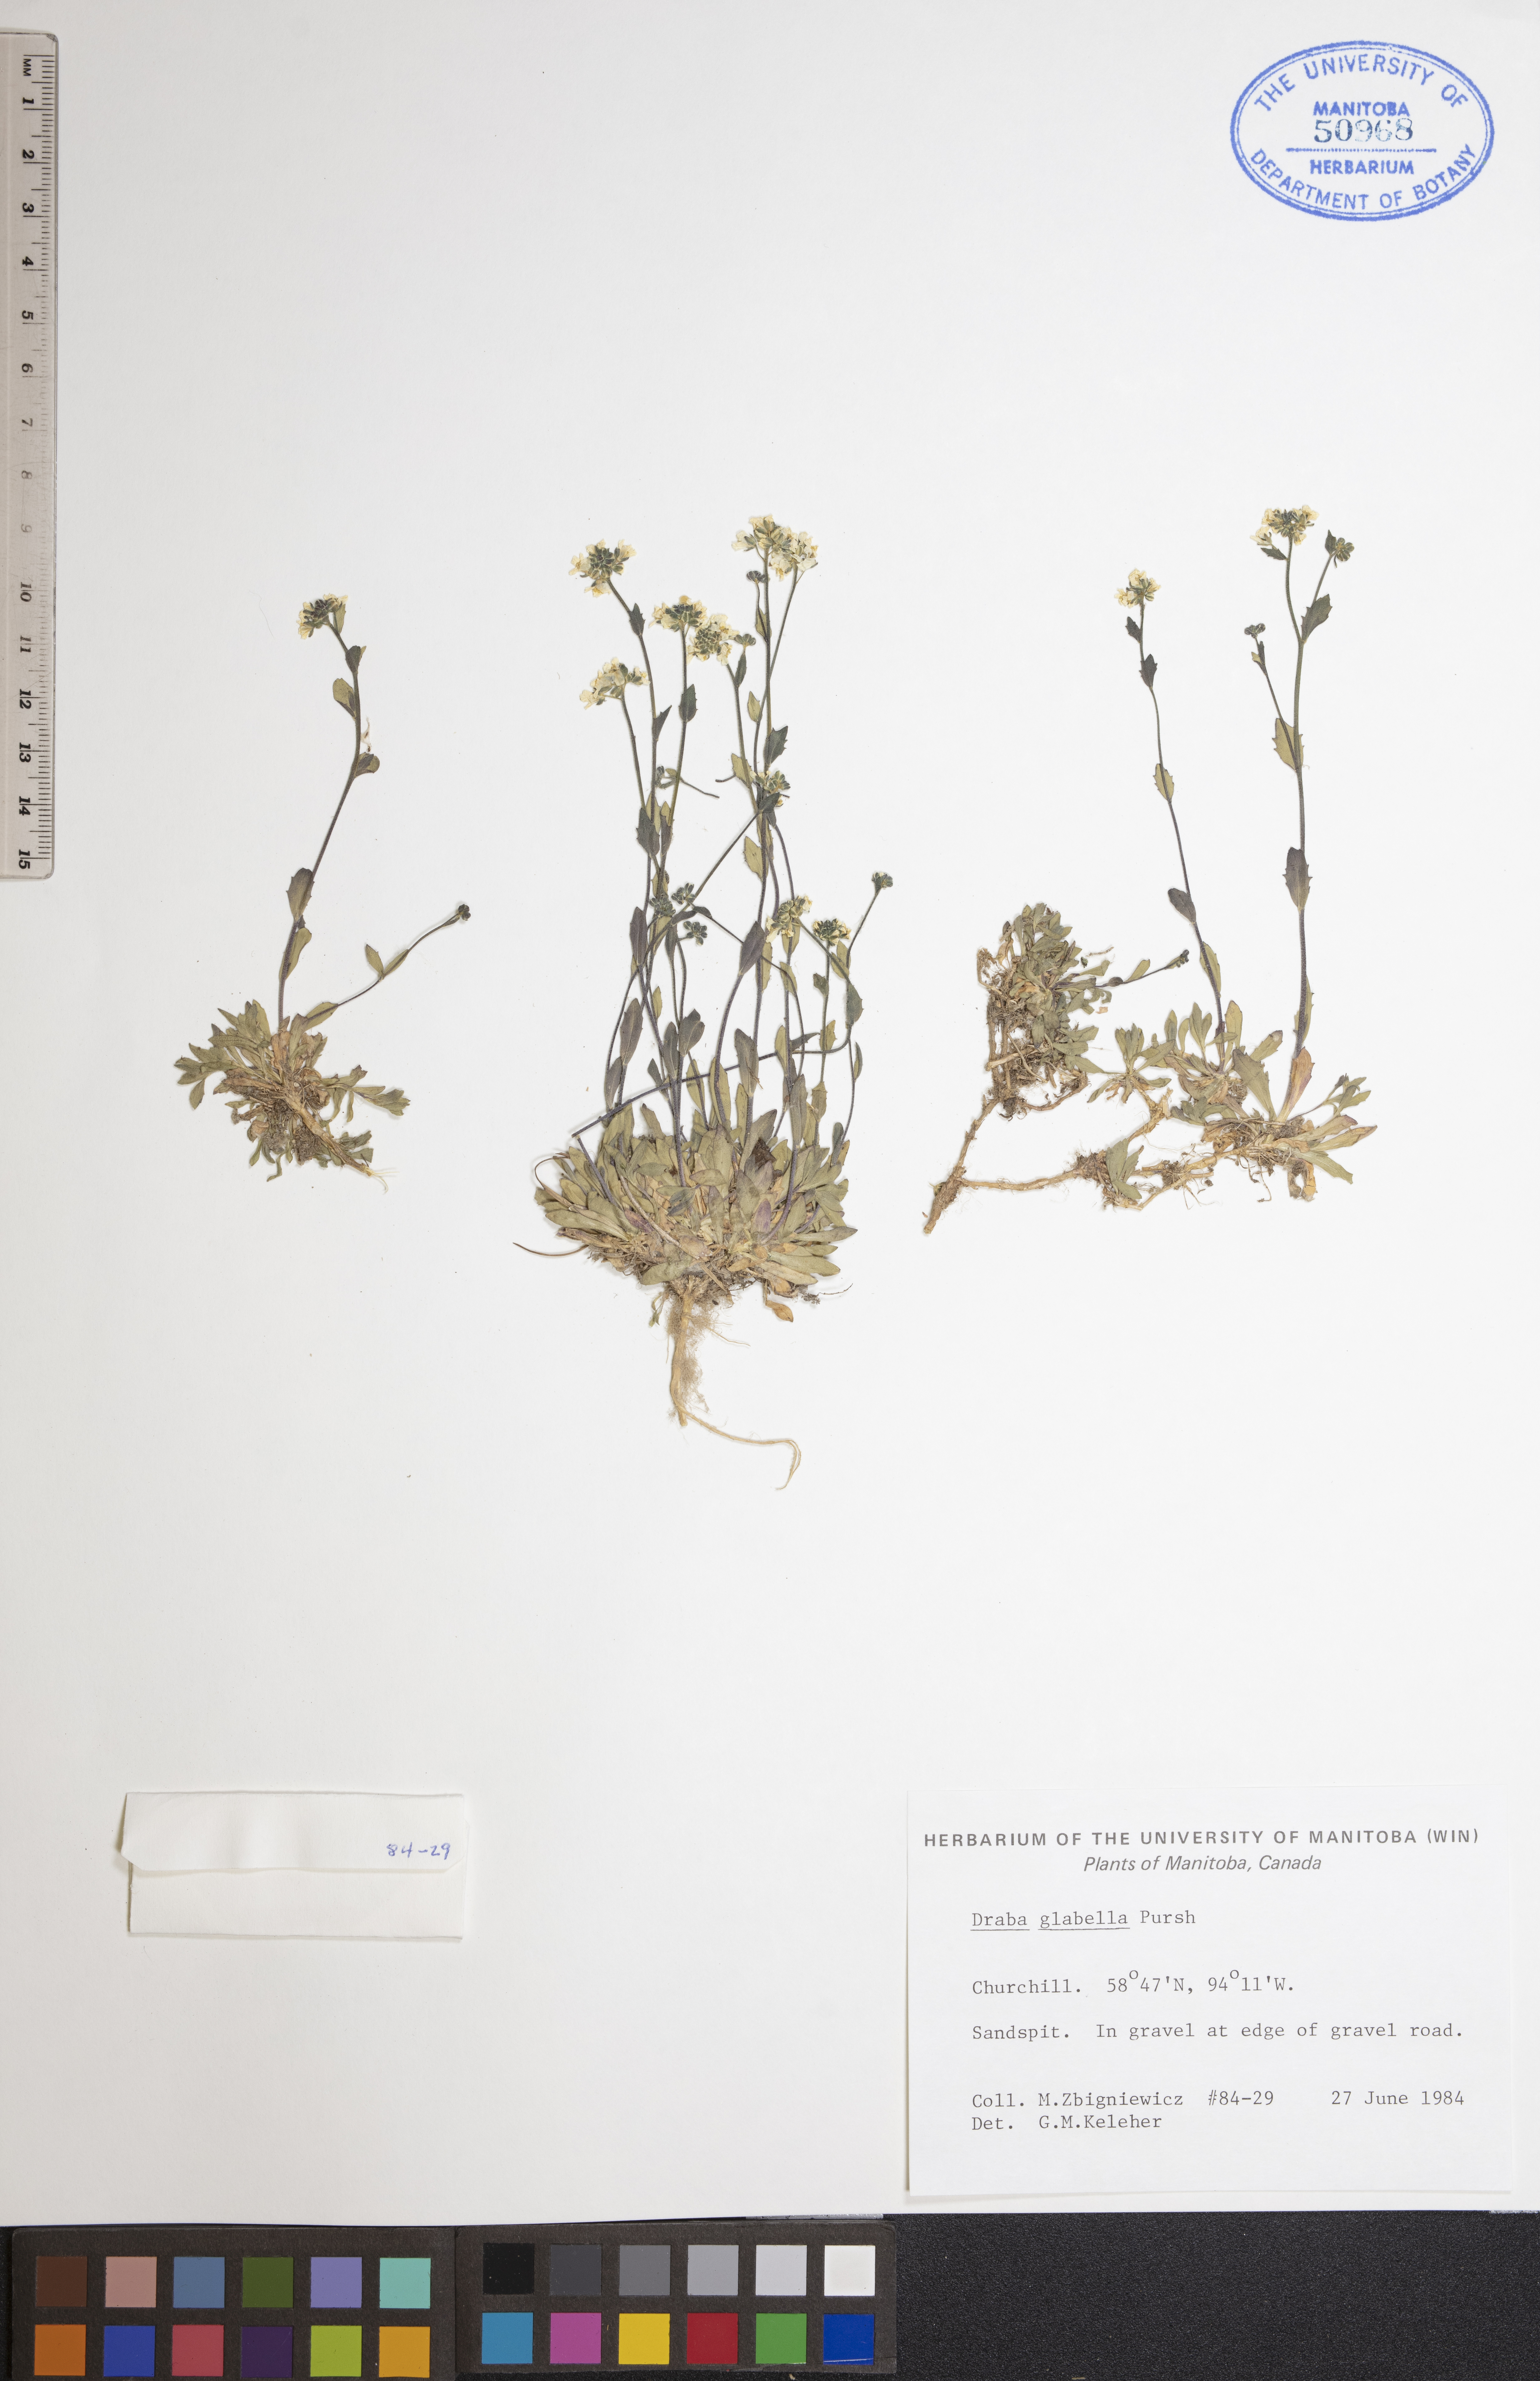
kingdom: Plantae
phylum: Tracheophyta
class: Magnoliopsida
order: Brassicales
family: Brassicaceae
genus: Draba
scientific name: Draba glabella
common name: Glaucous draba
